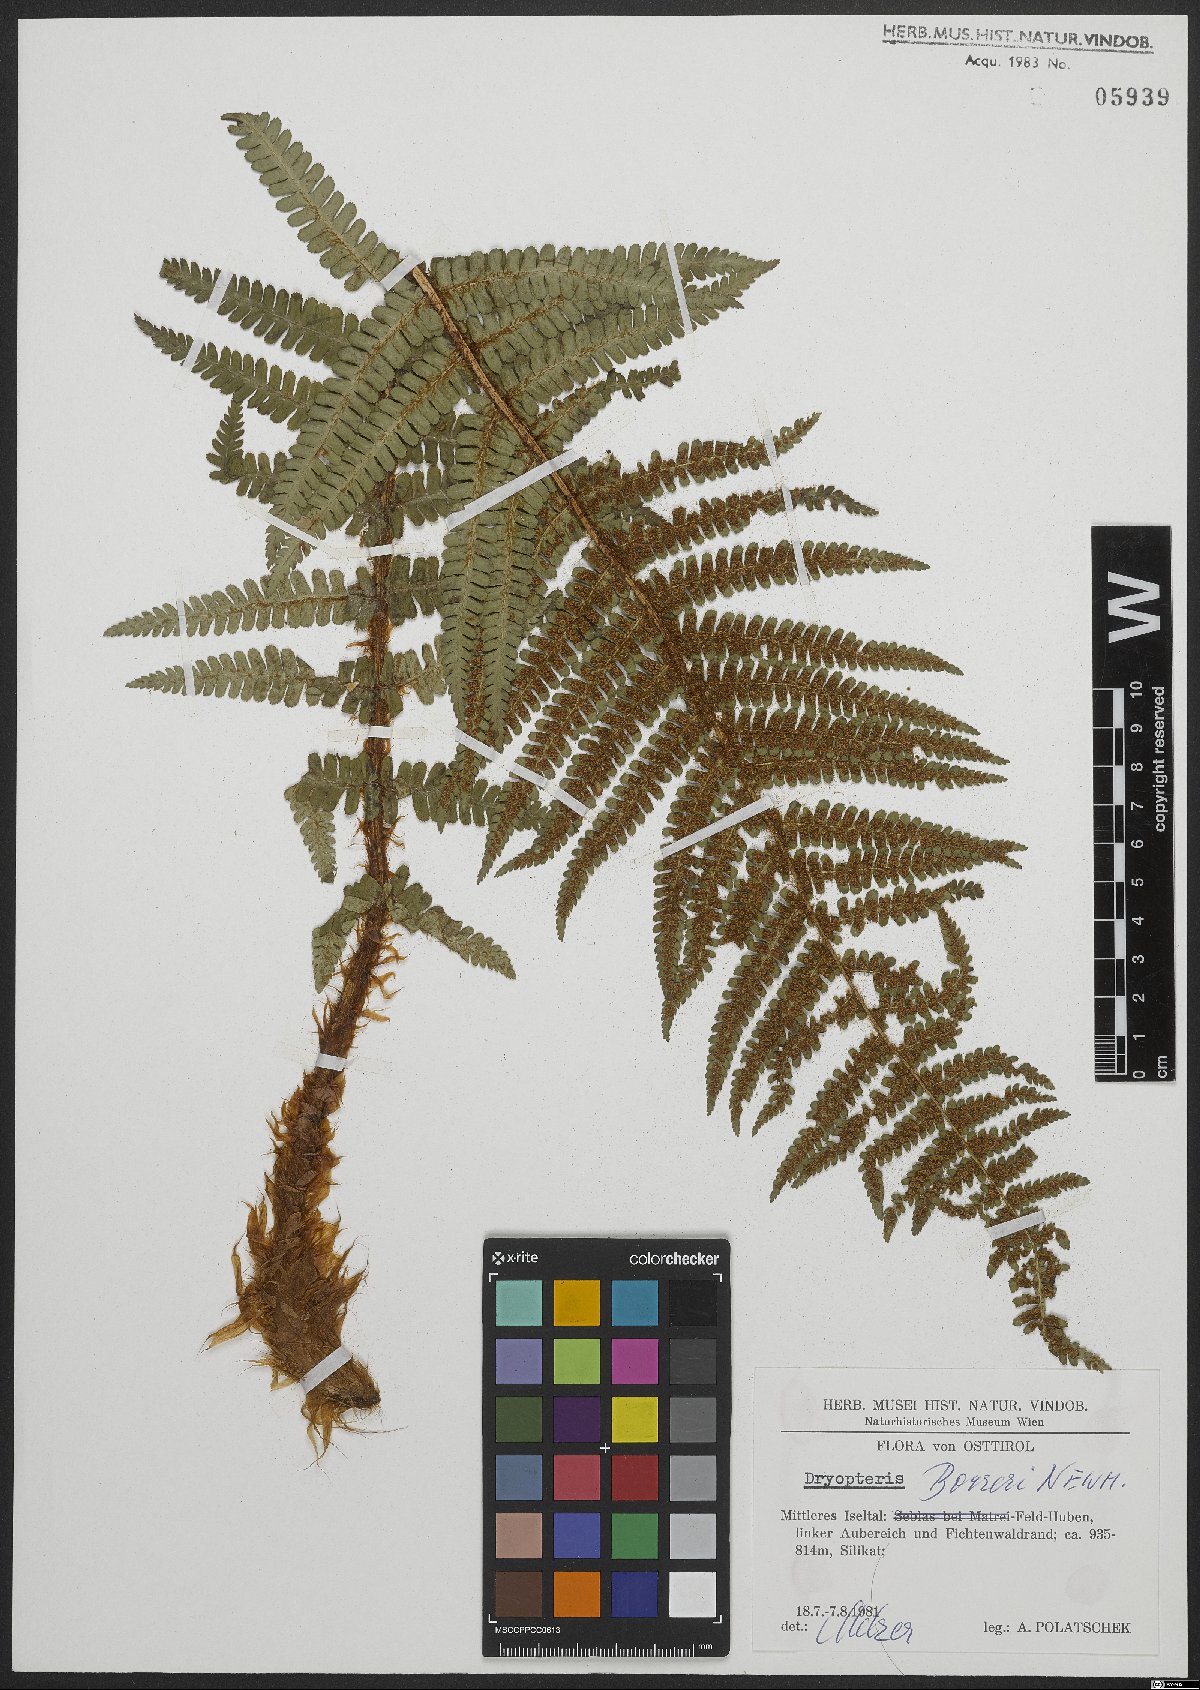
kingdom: Plantae
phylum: Tracheophyta
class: Polypodiopsida
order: Polypodiales
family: Dryopteridaceae
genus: Dryopteris
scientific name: Dryopteris cambrensis
